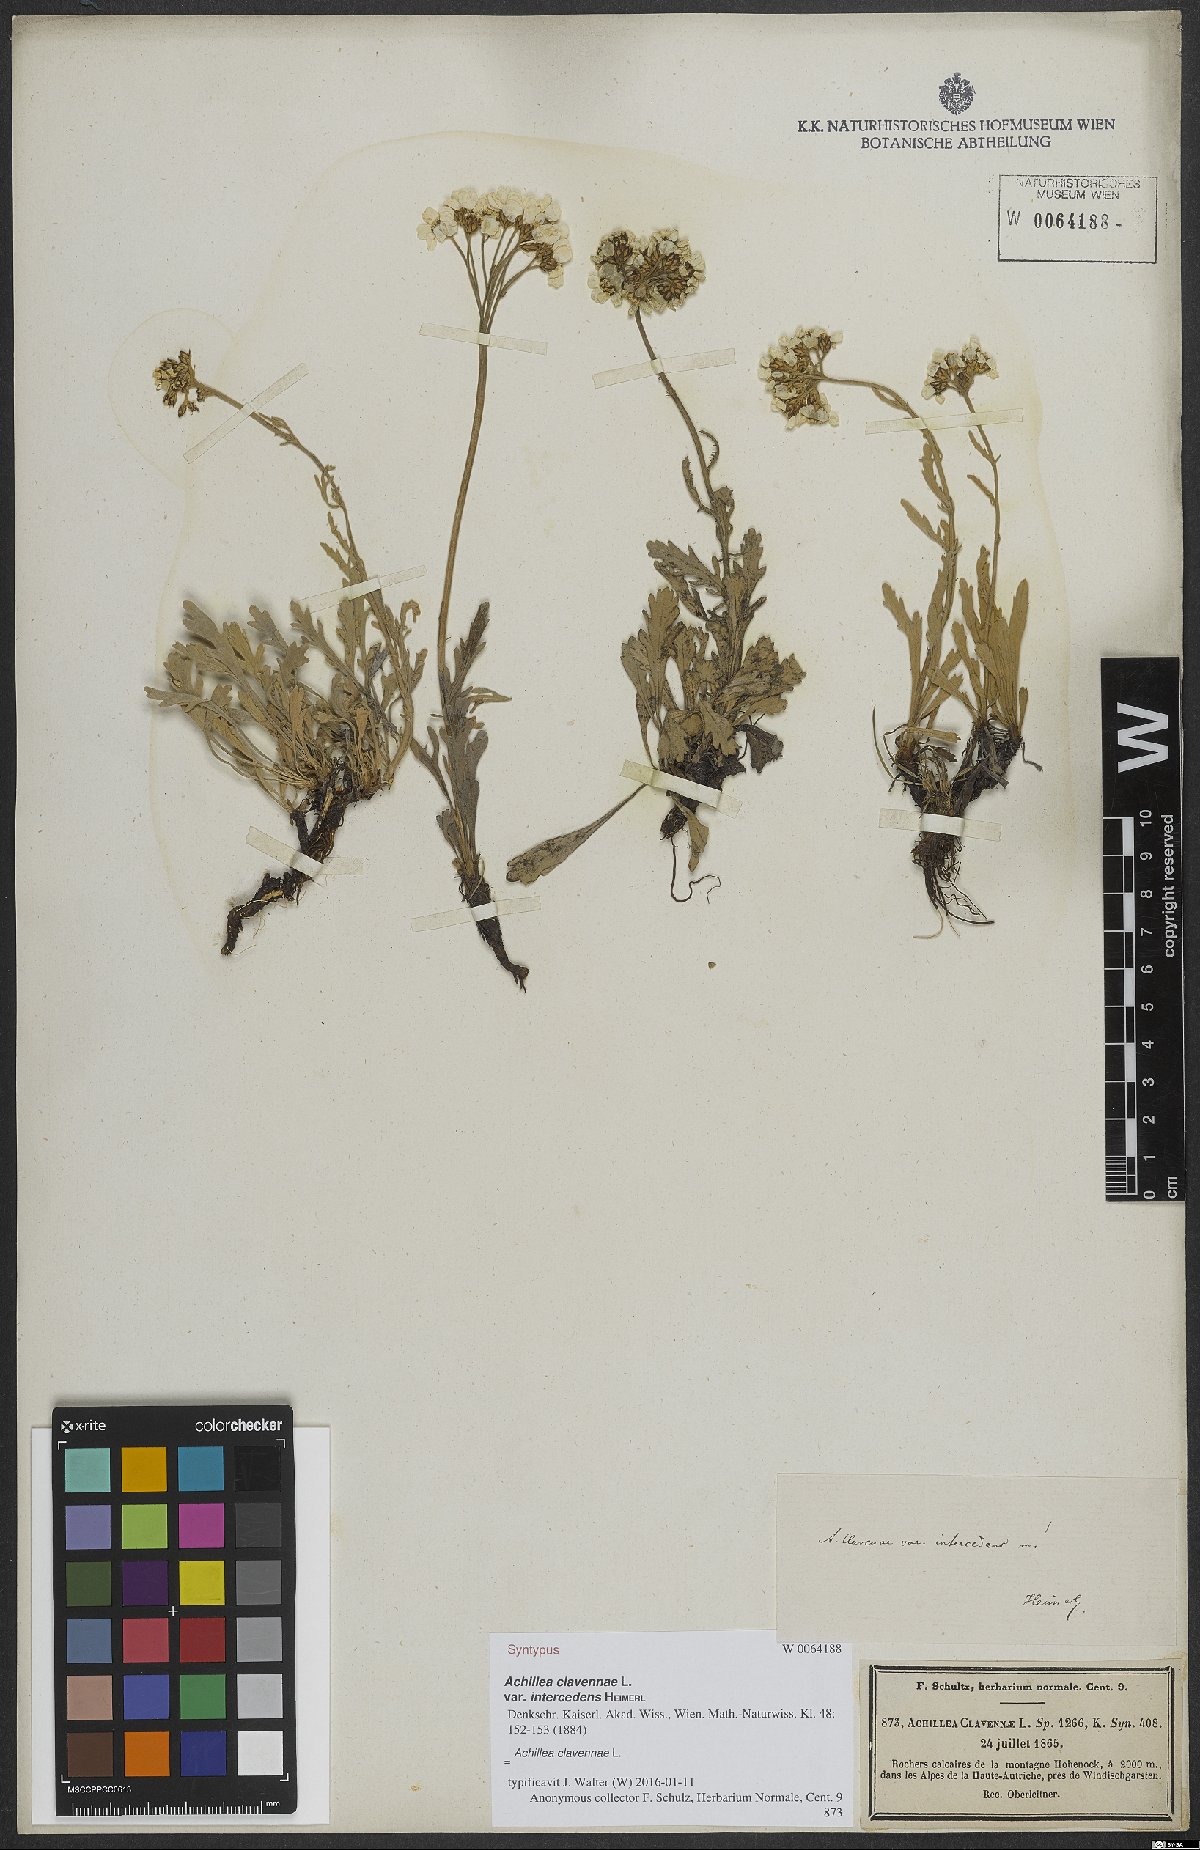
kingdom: Plantae
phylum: Tracheophyta
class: Magnoliopsida
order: Asterales
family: Asteraceae
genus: Achillea
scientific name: Achillea clavennae
